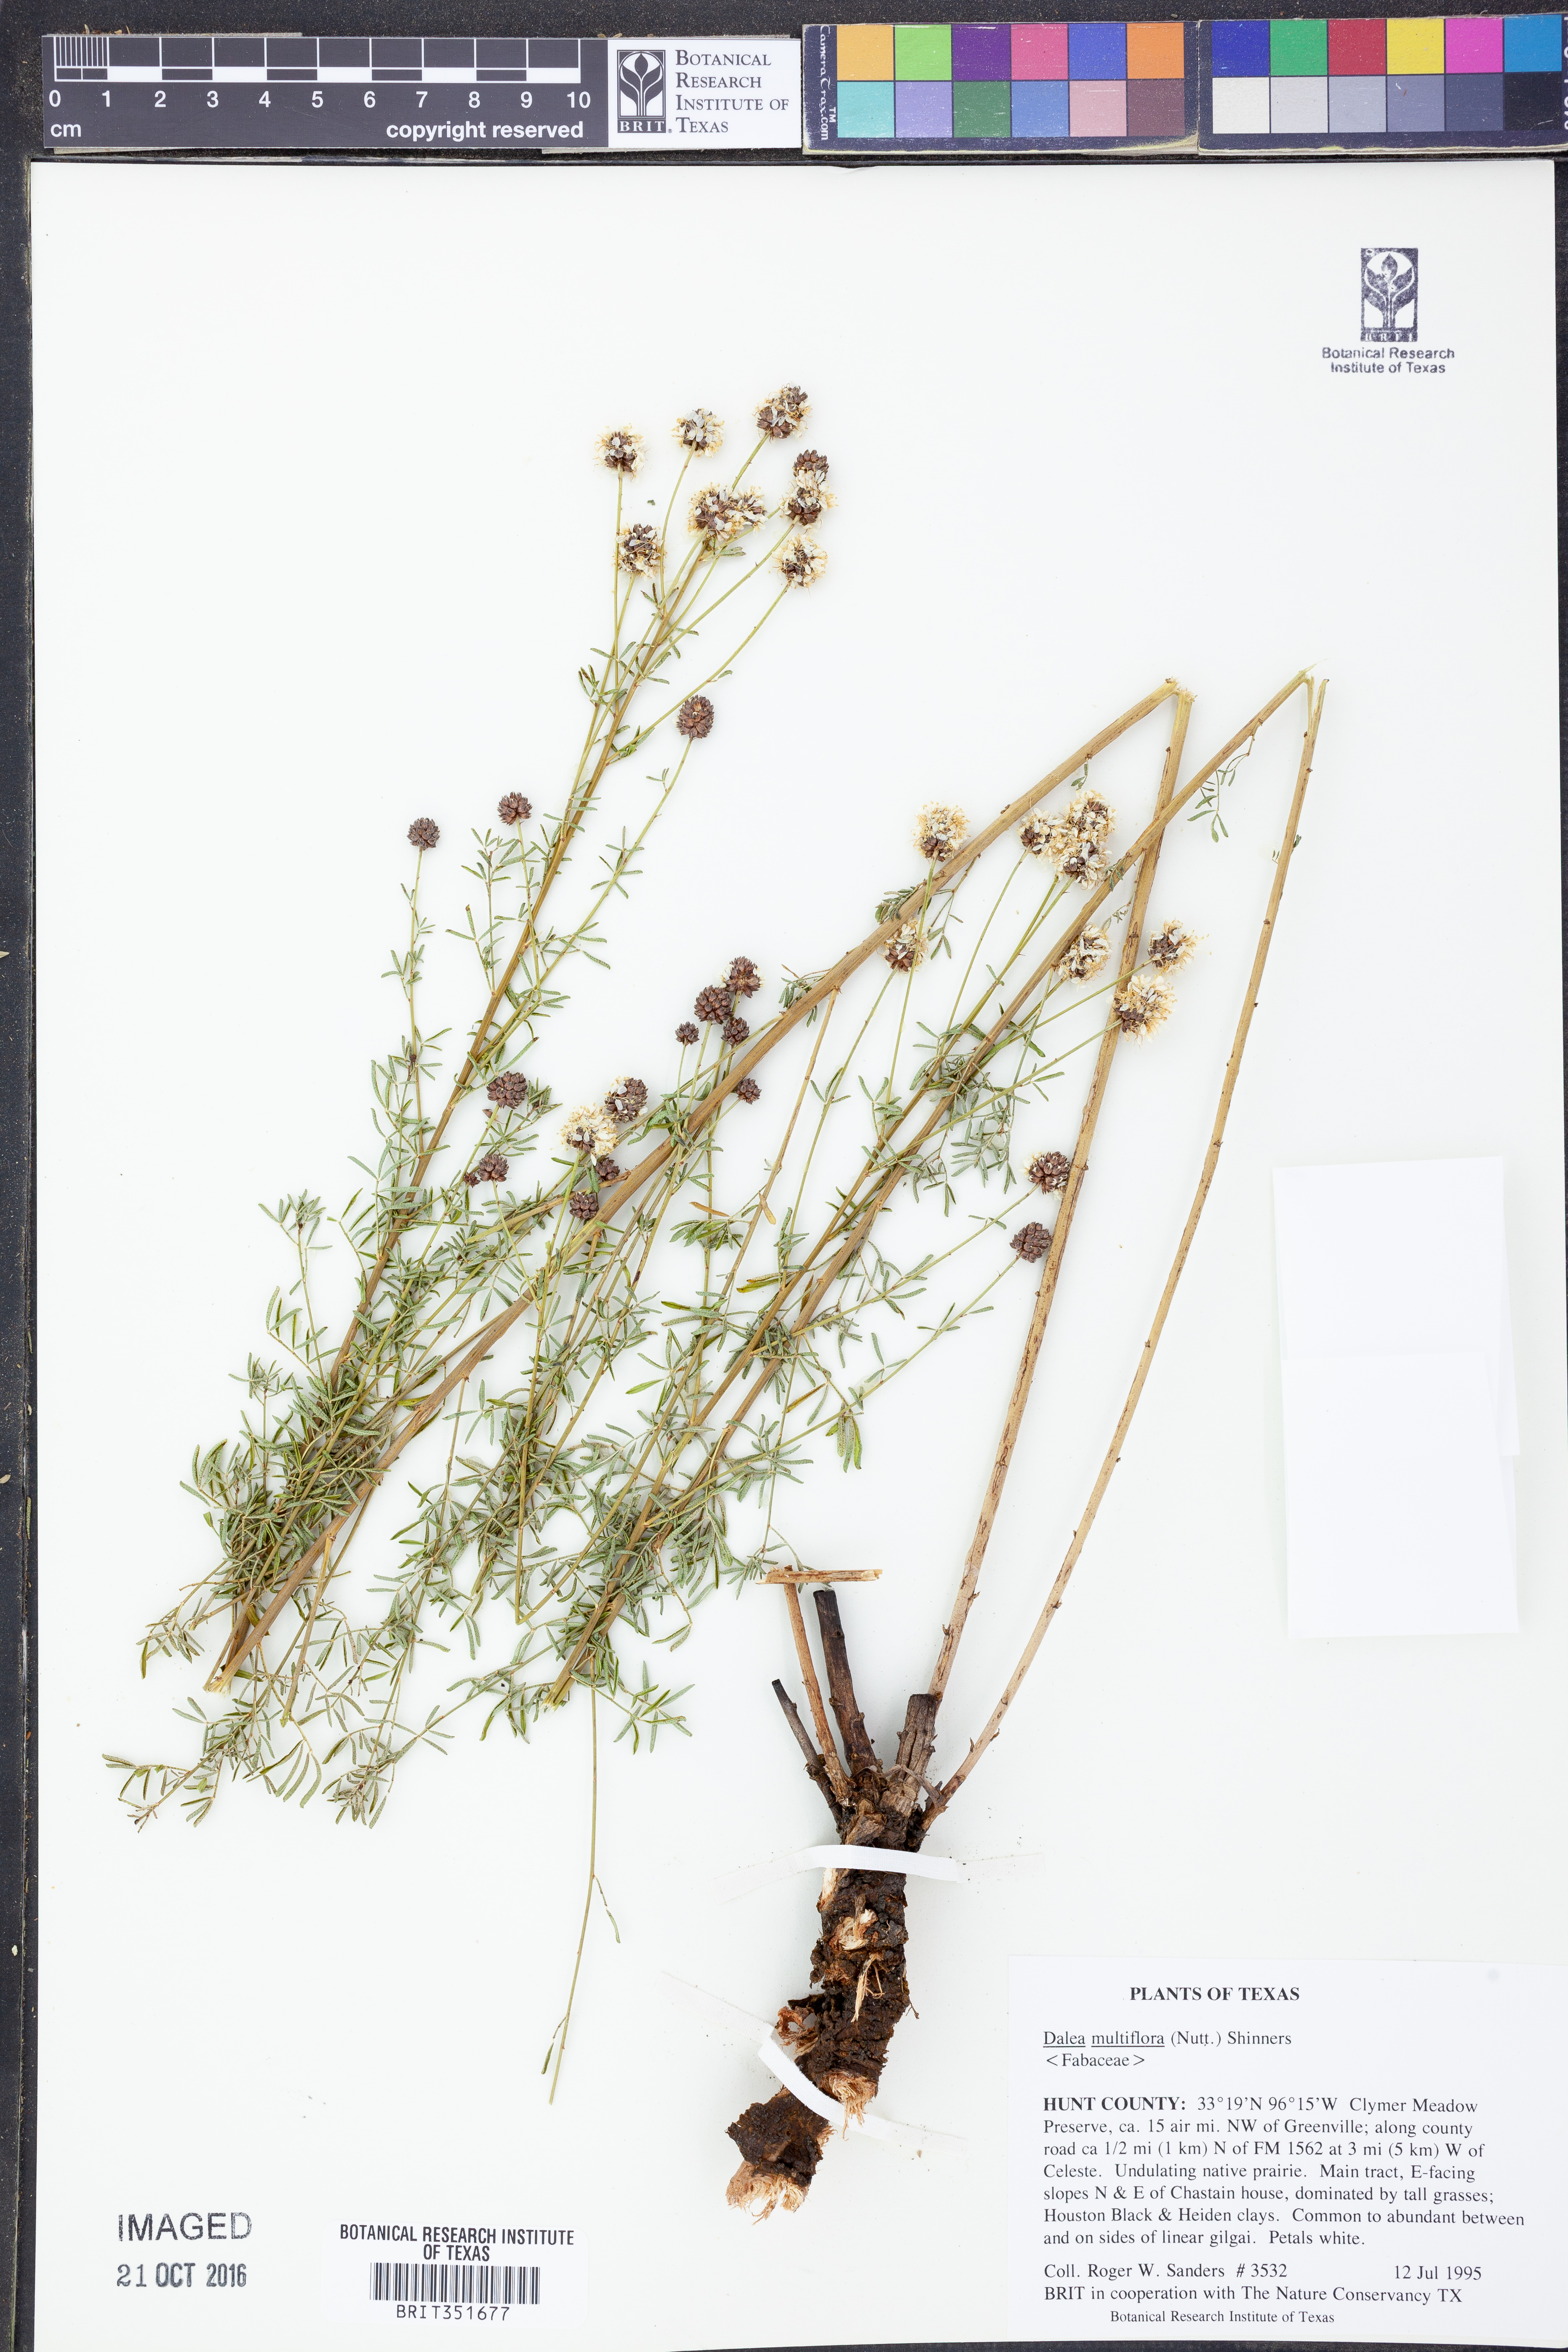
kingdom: Plantae
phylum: Tracheophyta
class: Magnoliopsida
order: Fabales
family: Fabaceae
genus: Dalea
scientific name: Dalea multiflora
